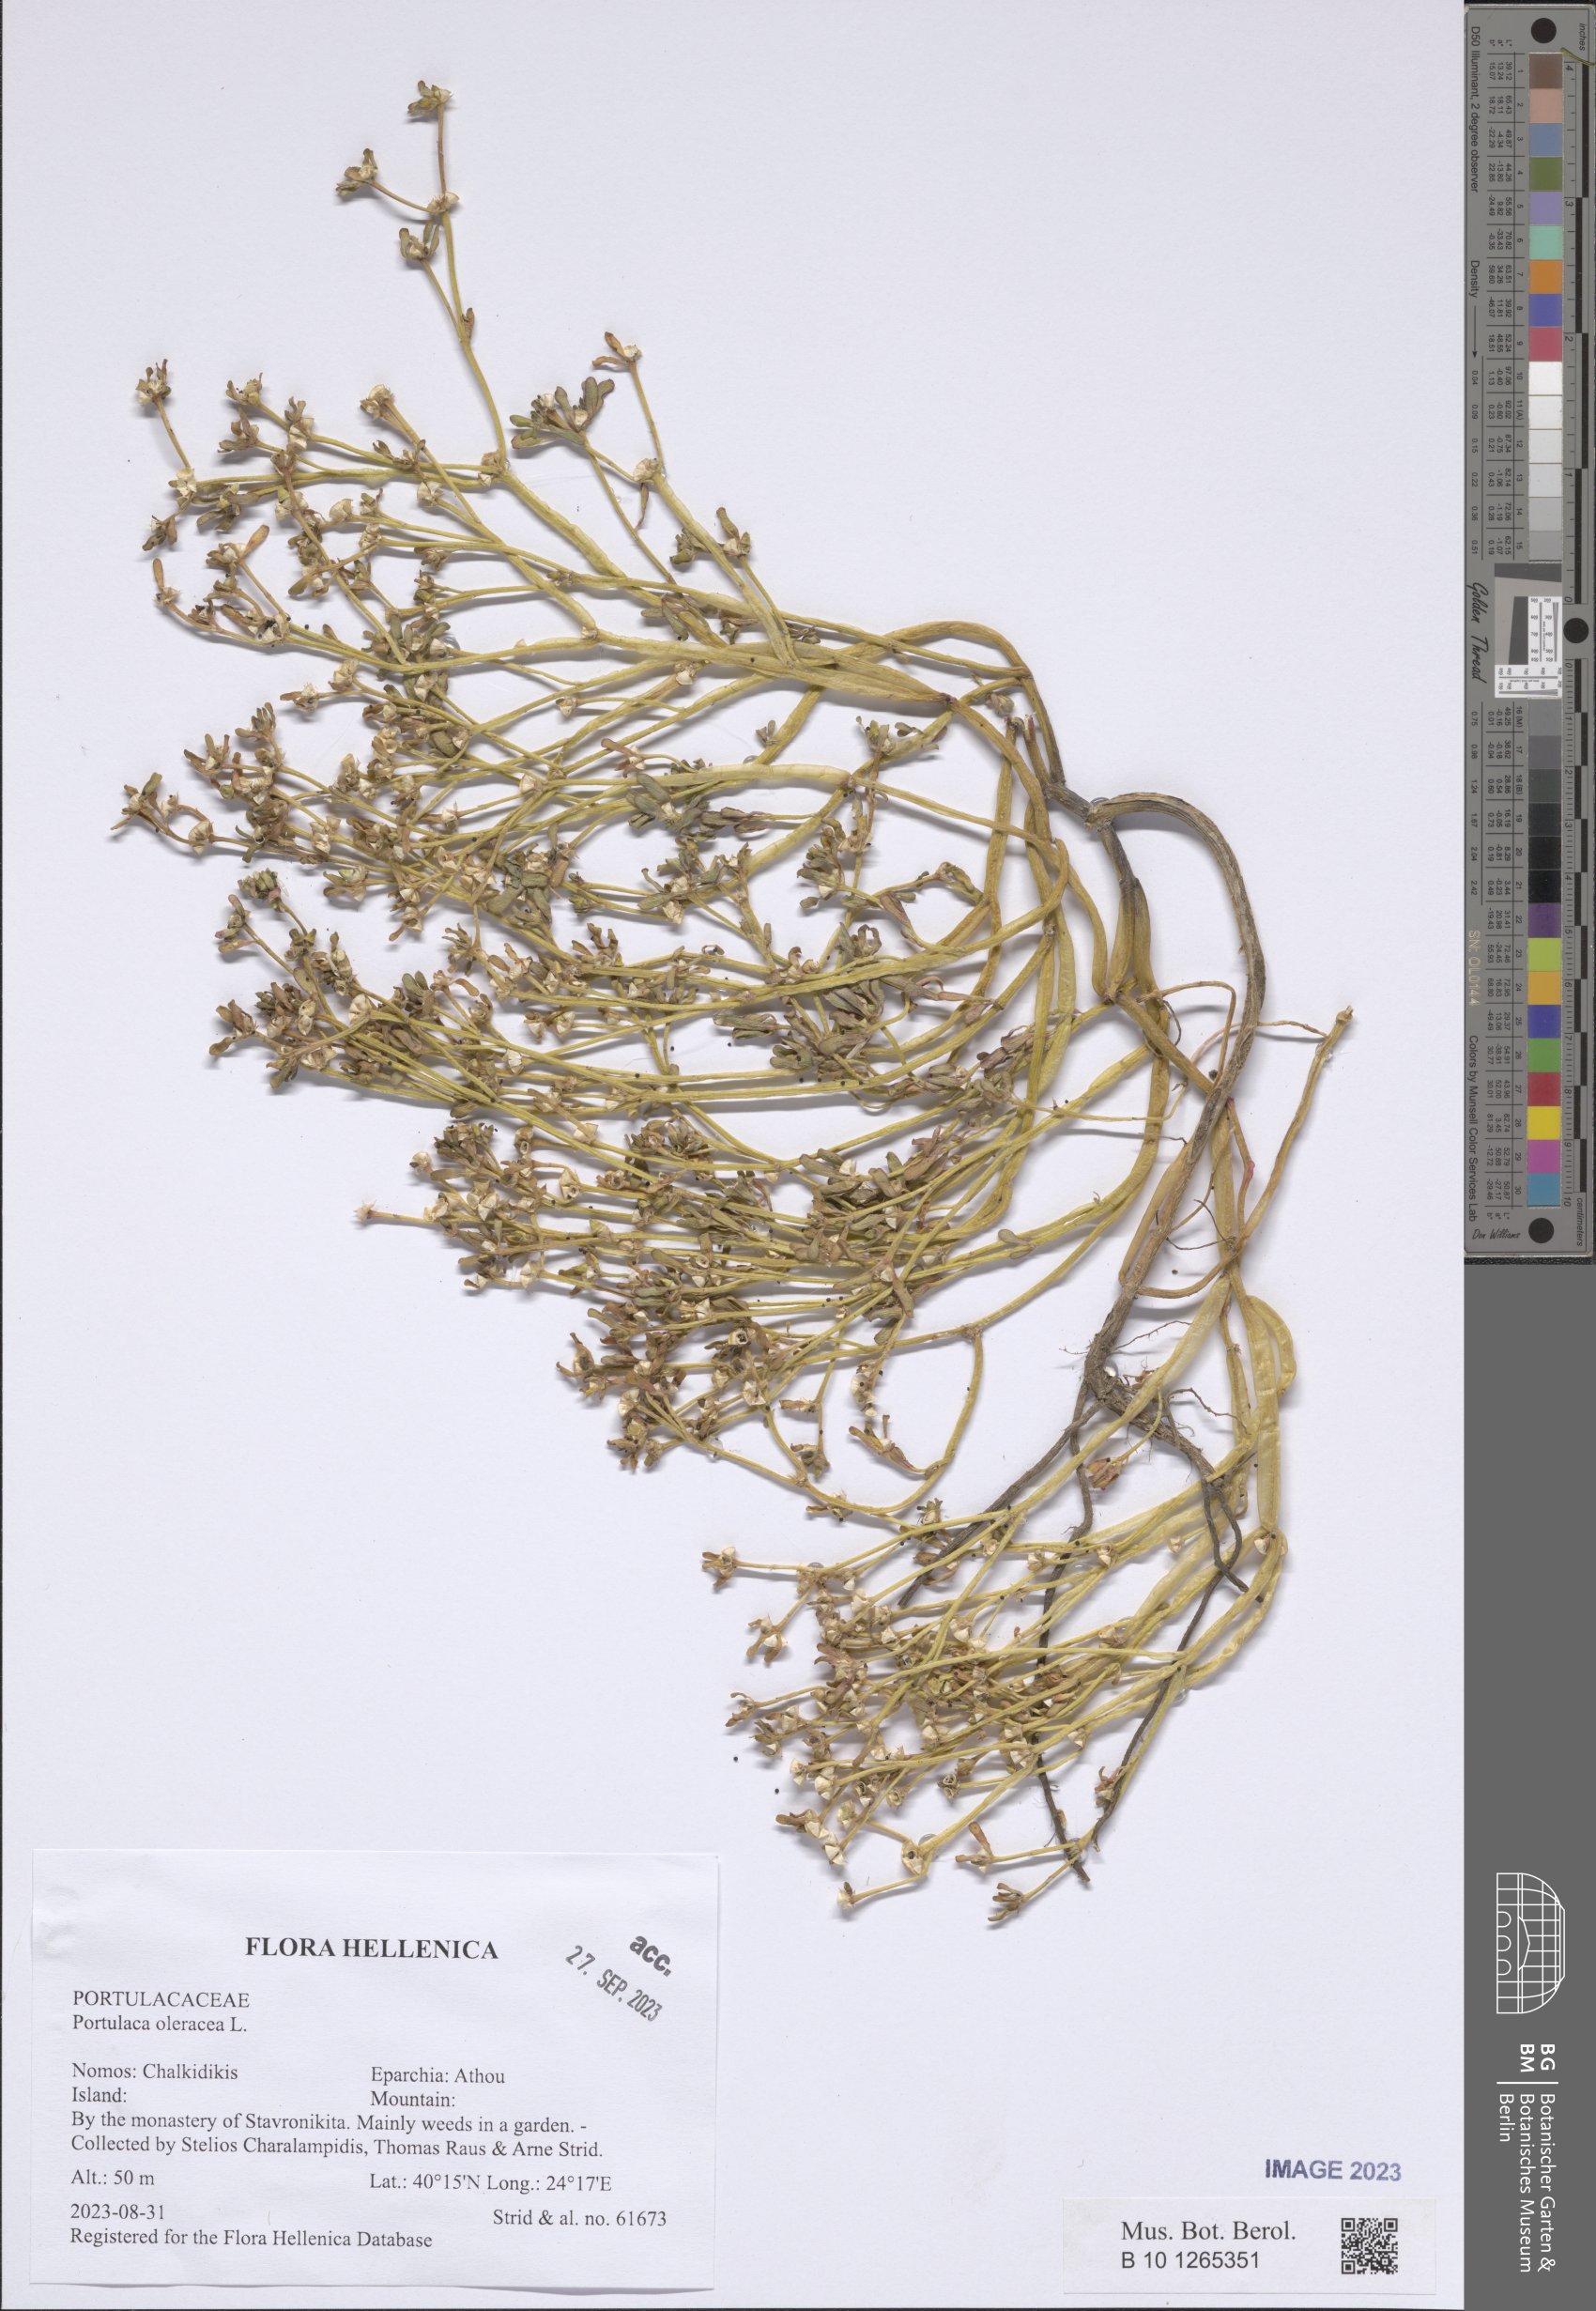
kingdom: Plantae
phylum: Tracheophyta
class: Magnoliopsida
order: Caryophyllales
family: Portulacaceae
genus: Portulaca
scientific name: Portulaca oleracea
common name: Common purslane
